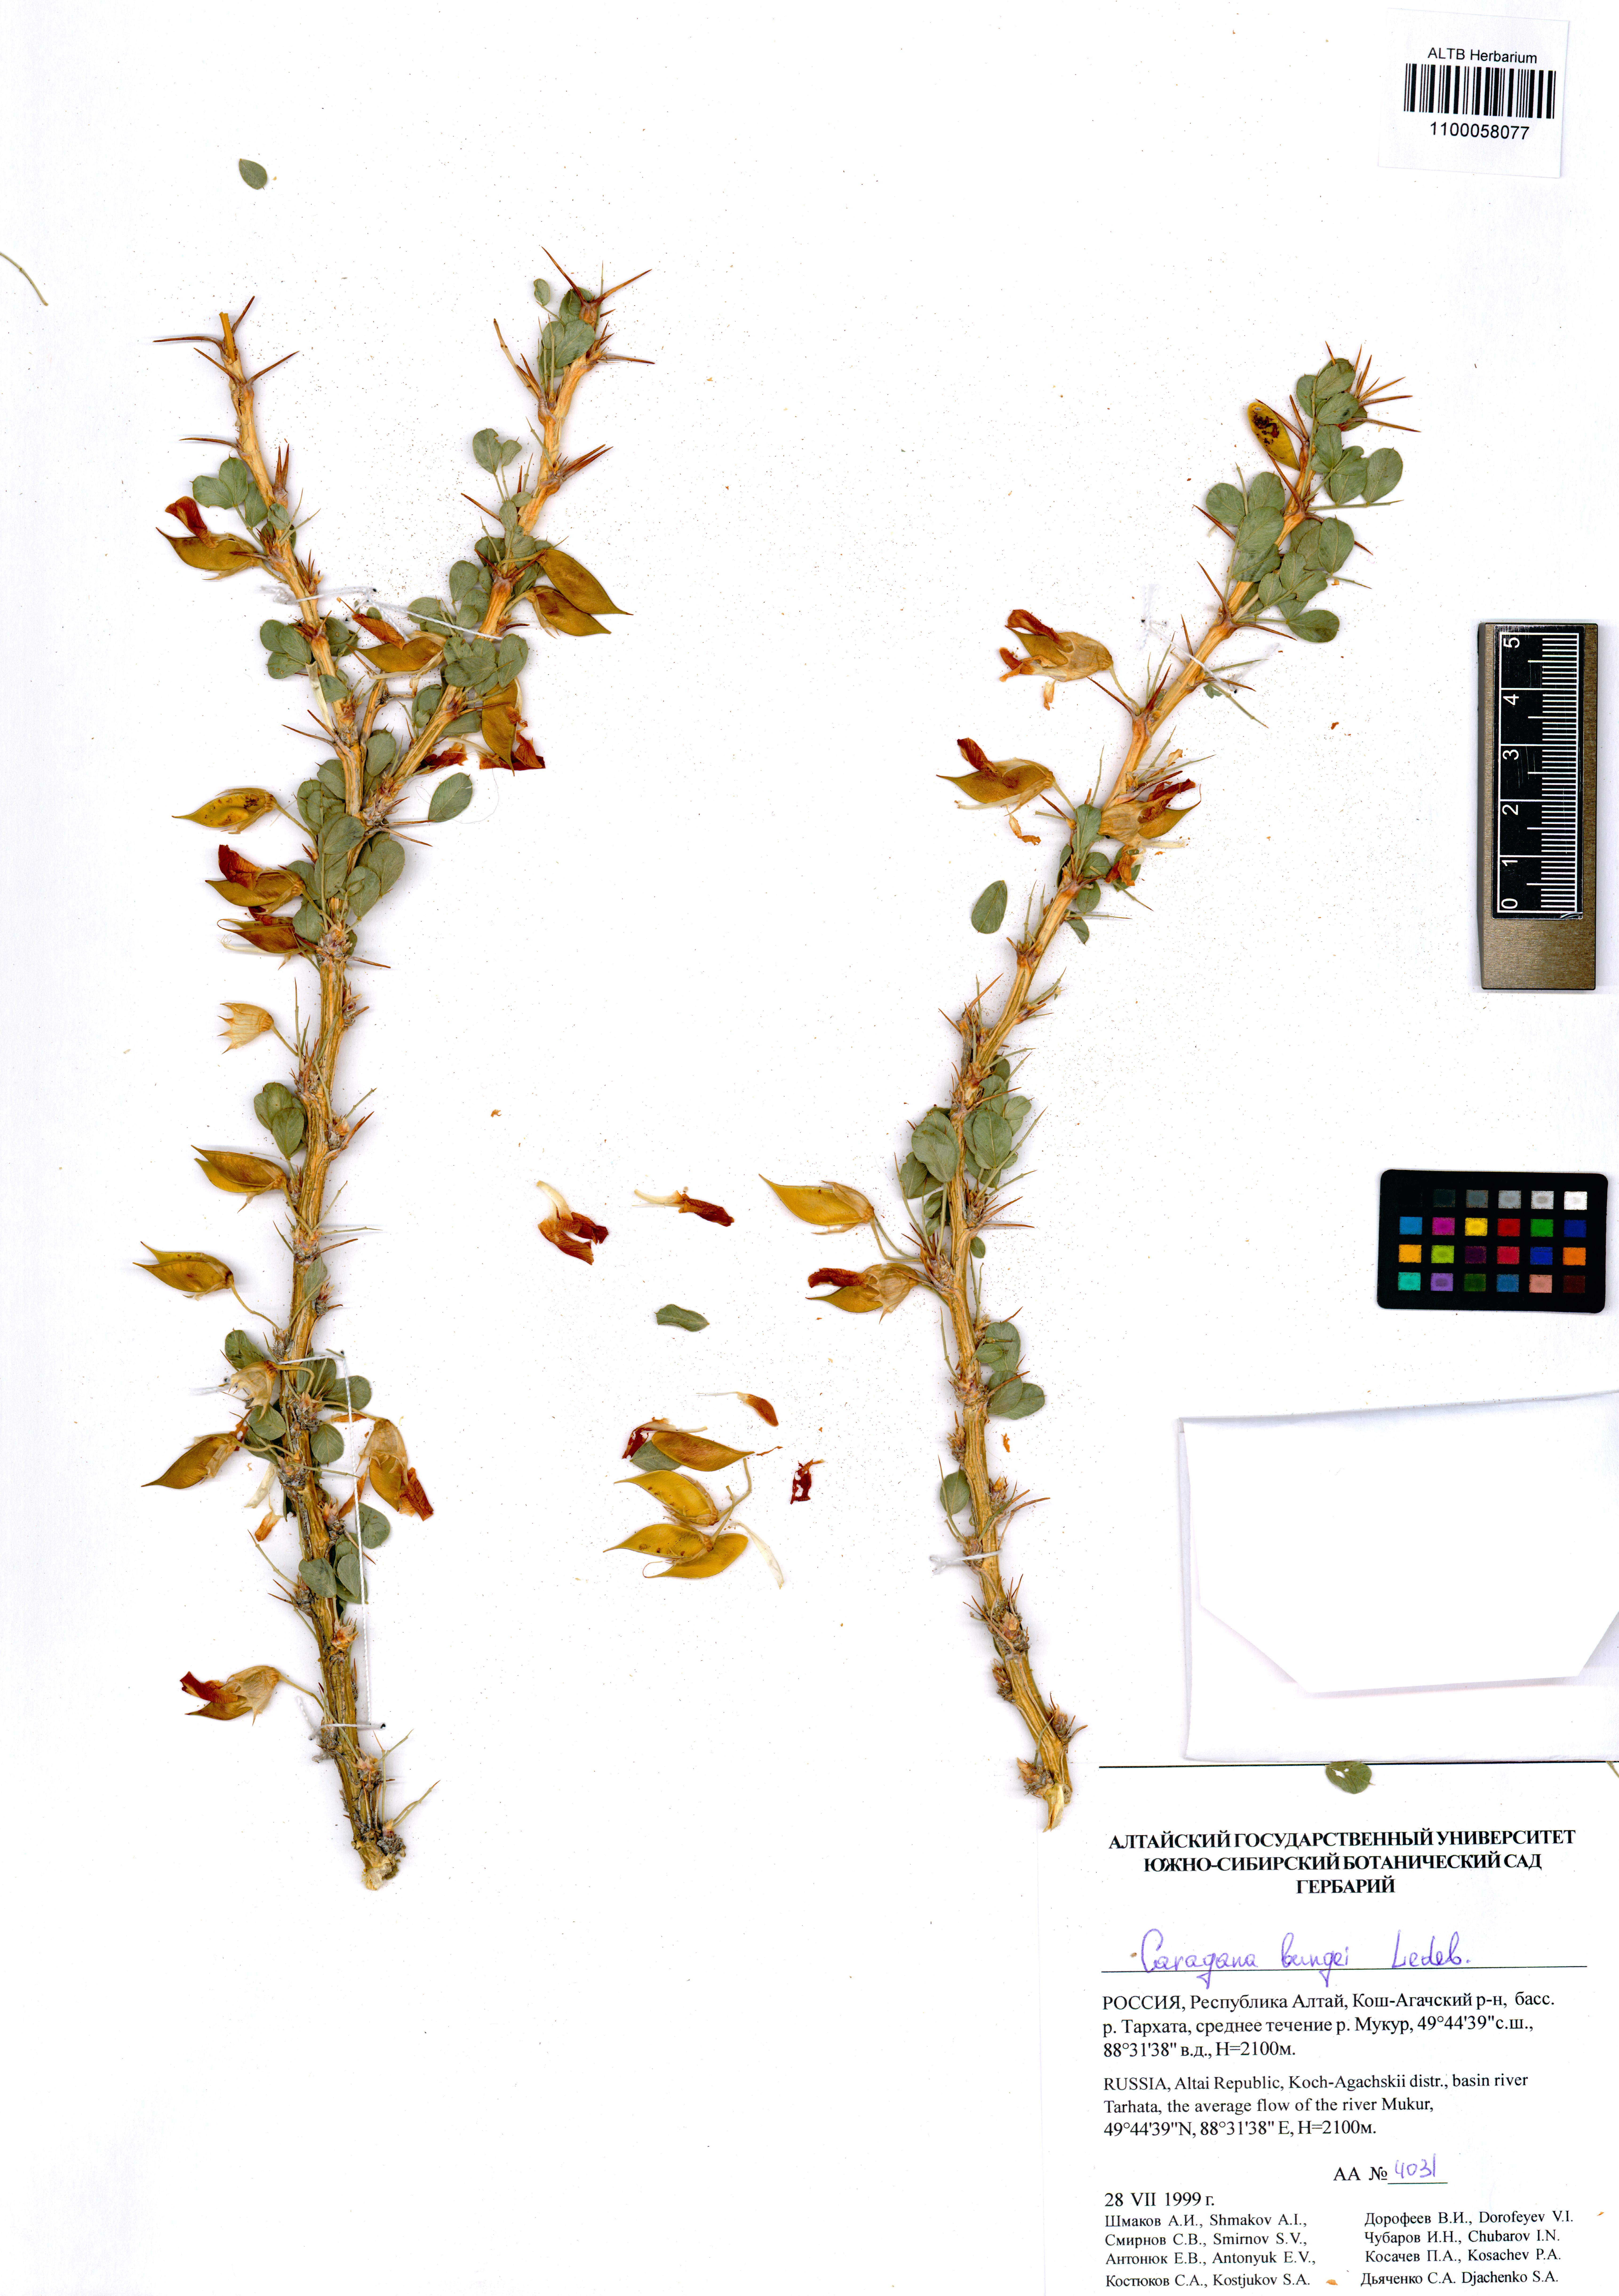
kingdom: Plantae
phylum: Tracheophyta
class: Magnoliopsida
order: Fabales
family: Fabaceae
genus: Caragana
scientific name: Caragana bungei
